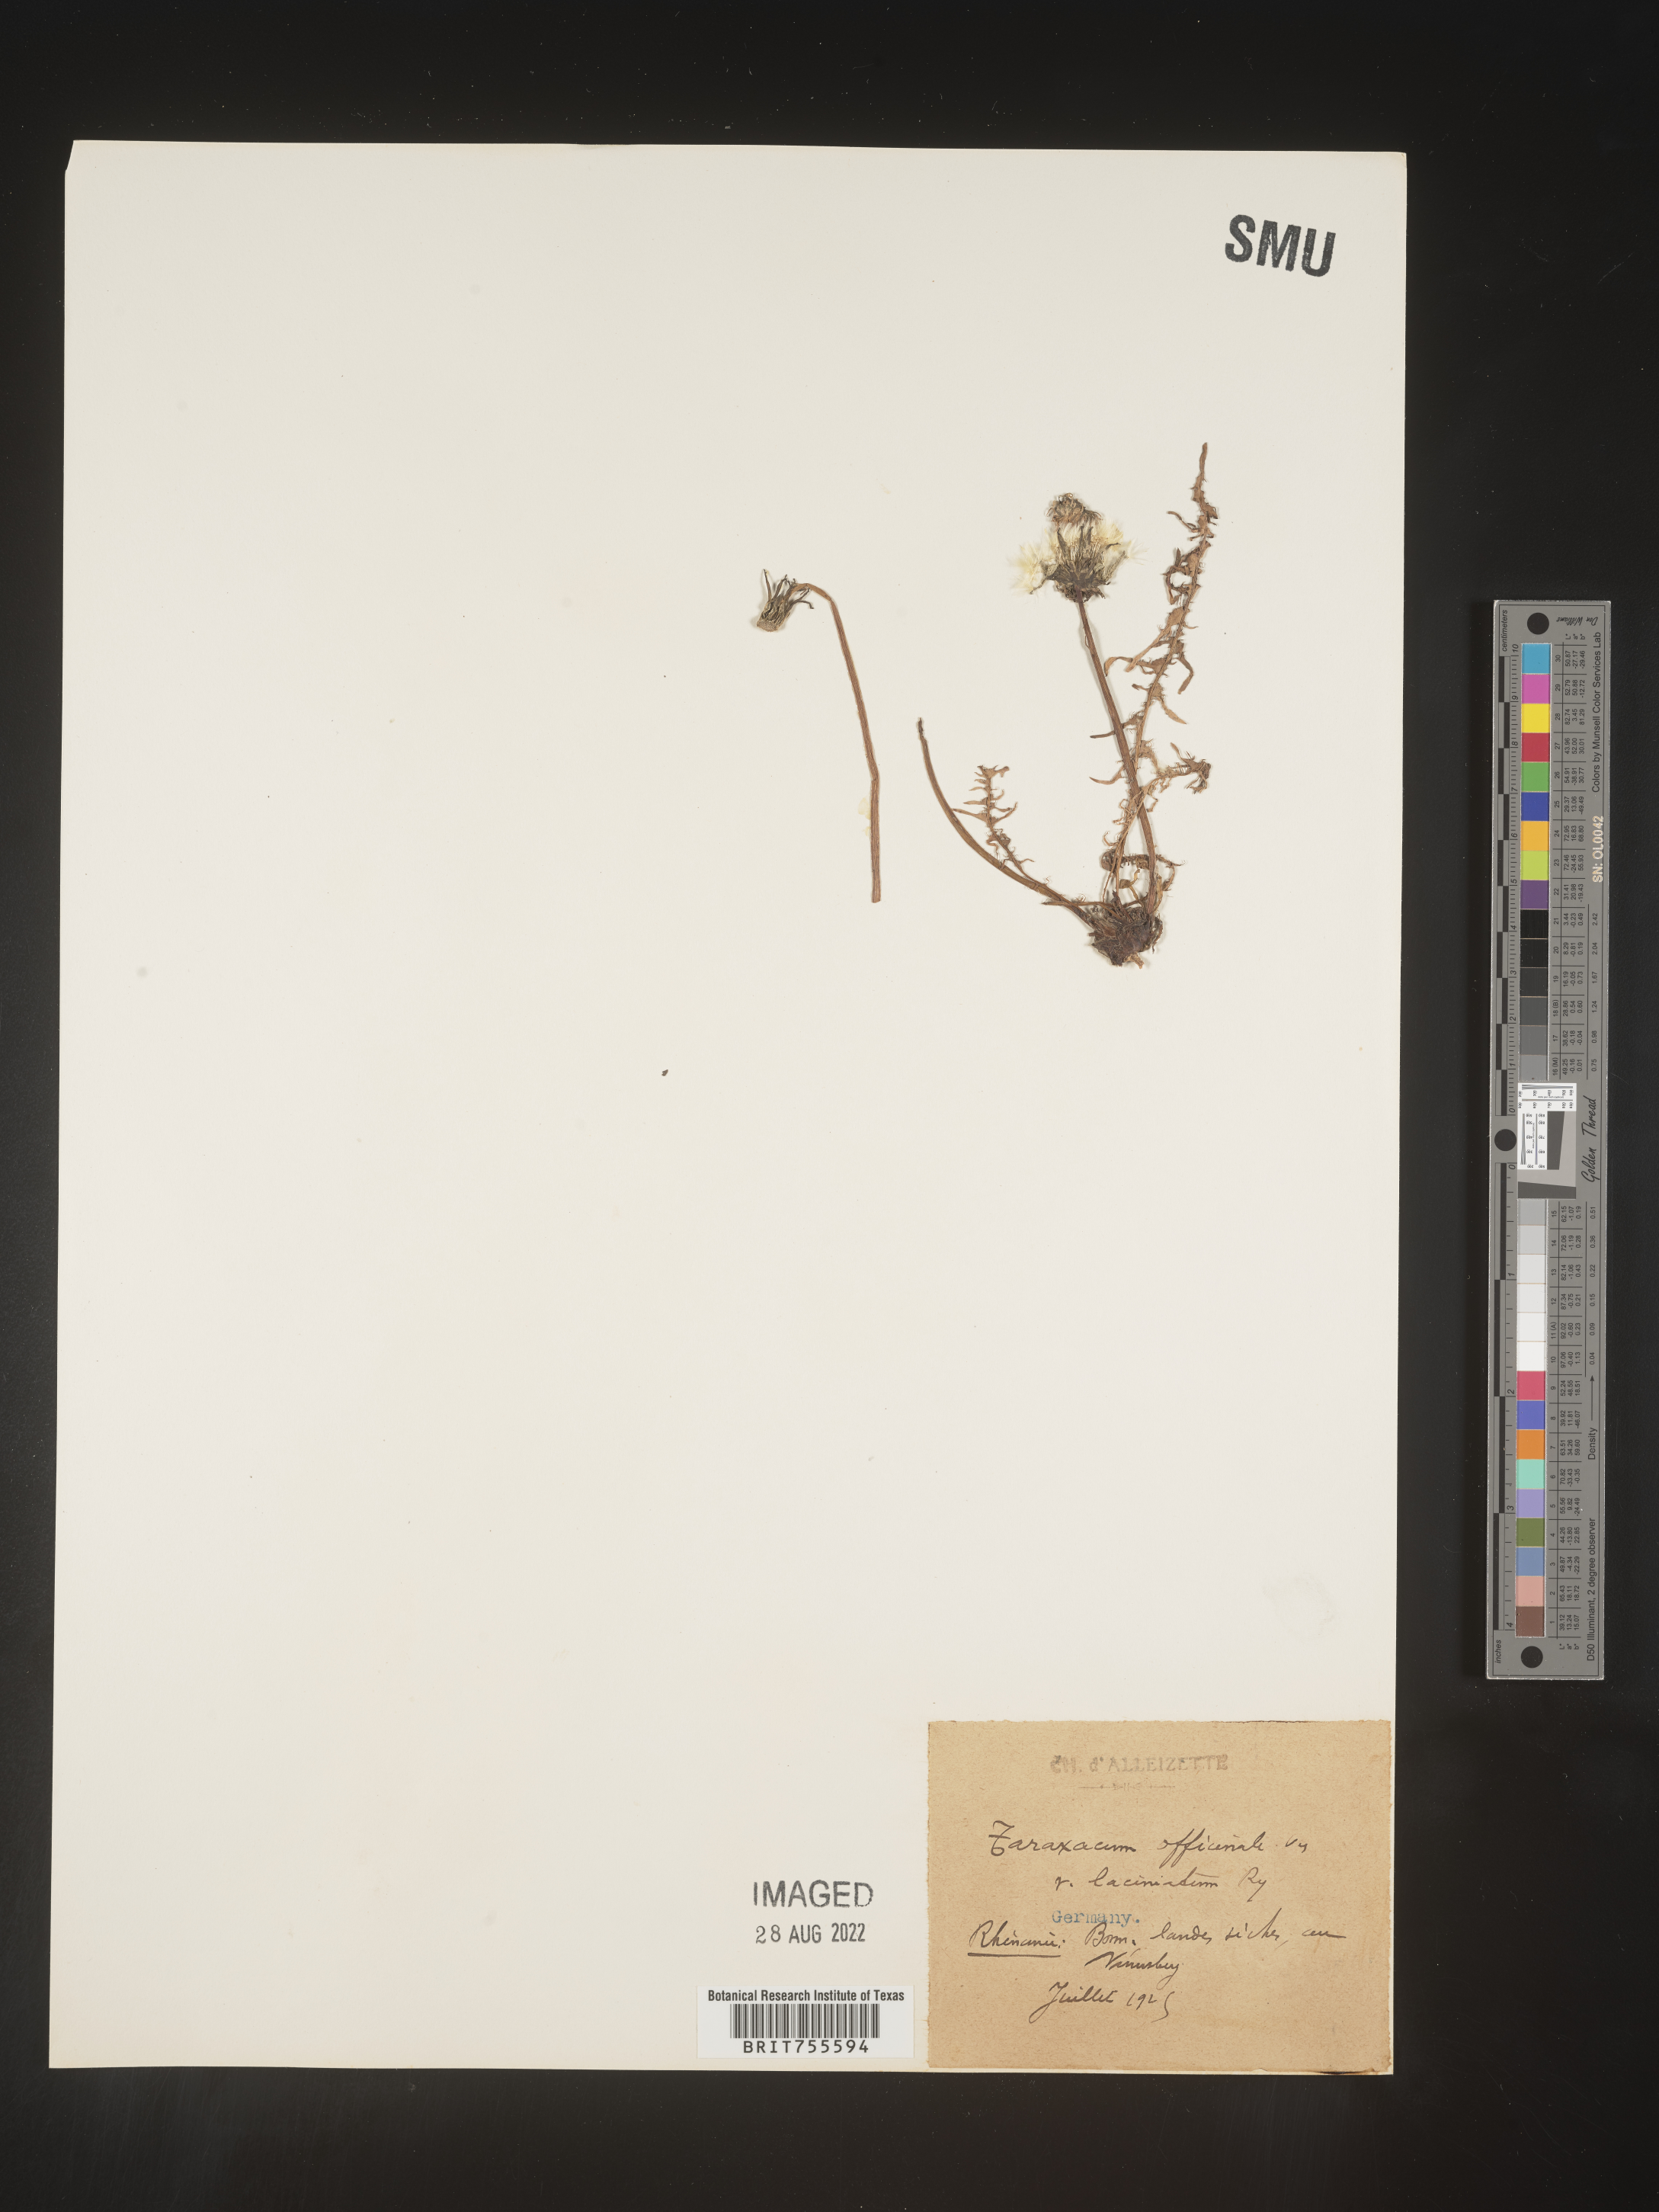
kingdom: Plantae
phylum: Tracheophyta
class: Magnoliopsida
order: Asterales
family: Asteraceae
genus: Taraxacum
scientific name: Taraxacum
